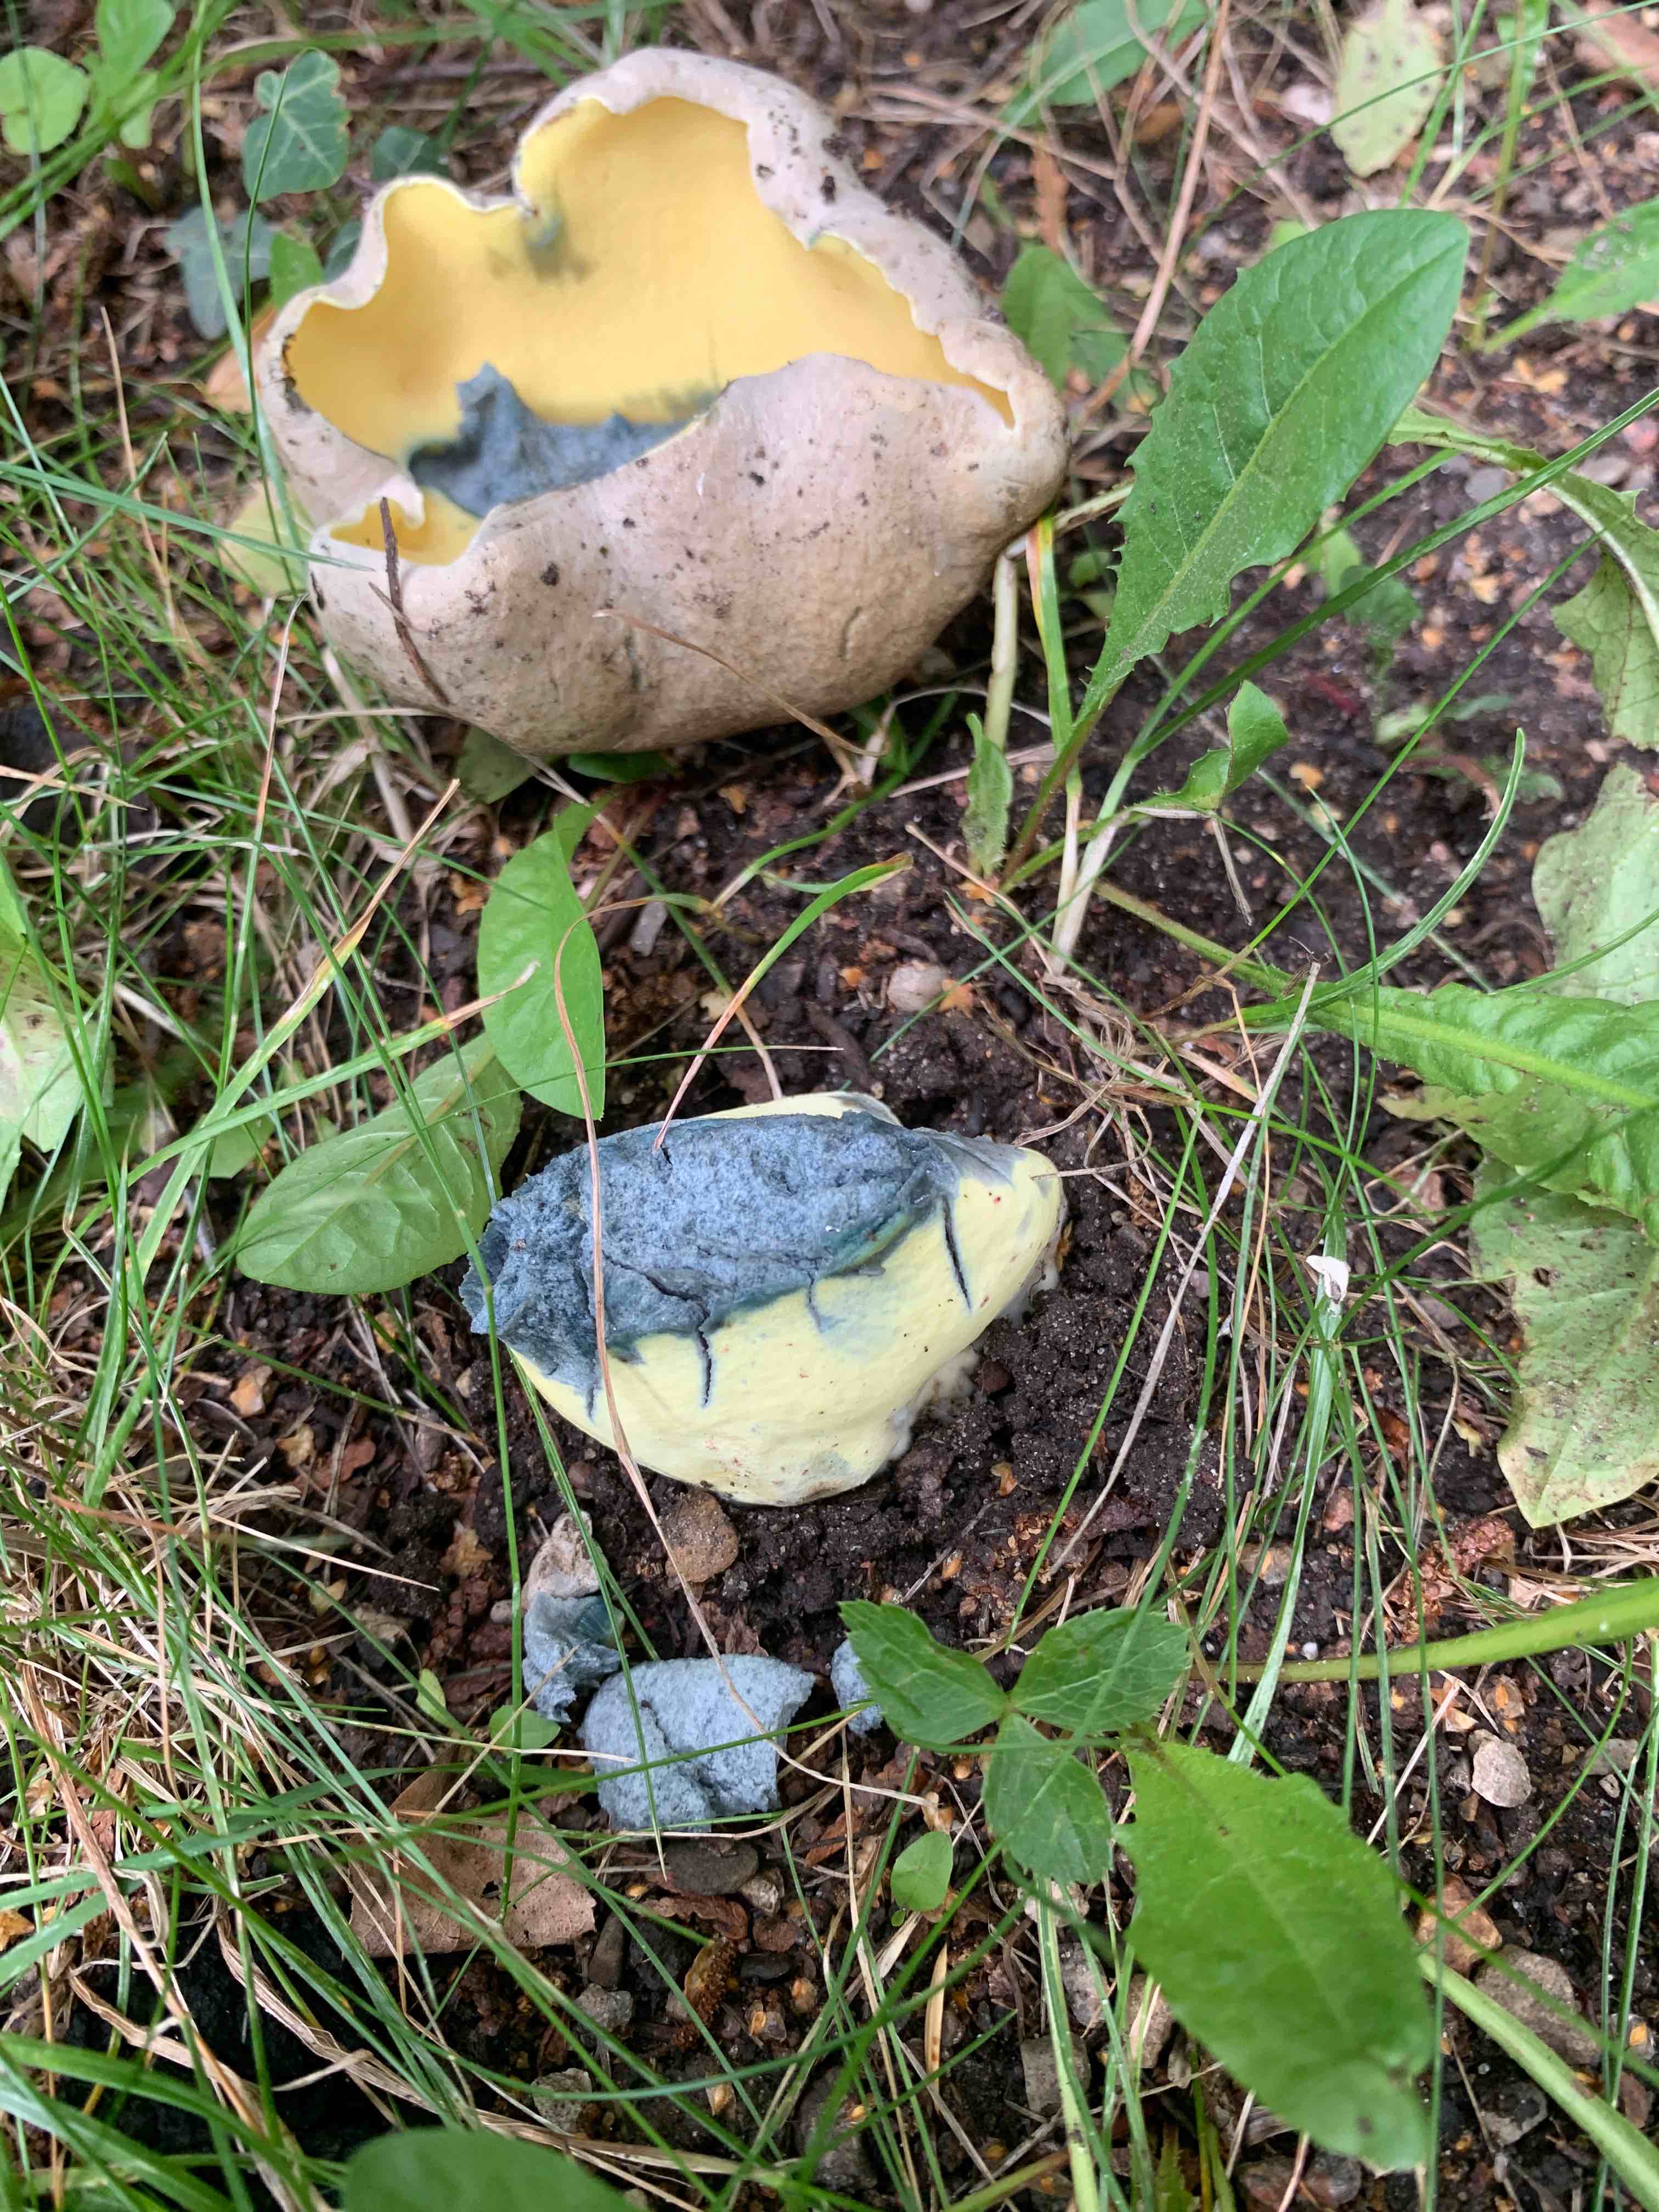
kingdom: Fungi
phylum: Basidiomycota
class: Agaricomycetes
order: Boletales
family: Boletaceae
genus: Caloboletus
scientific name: Caloboletus radicans
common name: rod-rørhat
